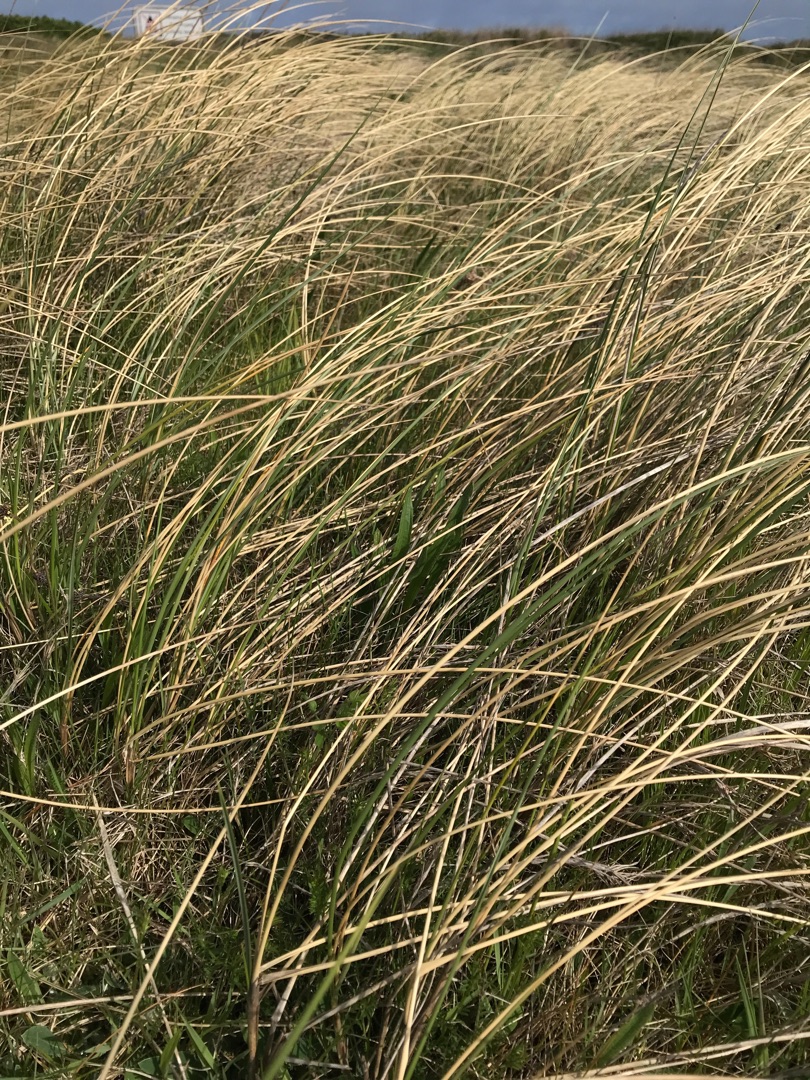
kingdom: Plantae
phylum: Tracheophyta
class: Liliopsida
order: Poales
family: Poaceae
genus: Calamagrostis
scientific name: Calamagrostis arenaria
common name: Sand-hjælme
